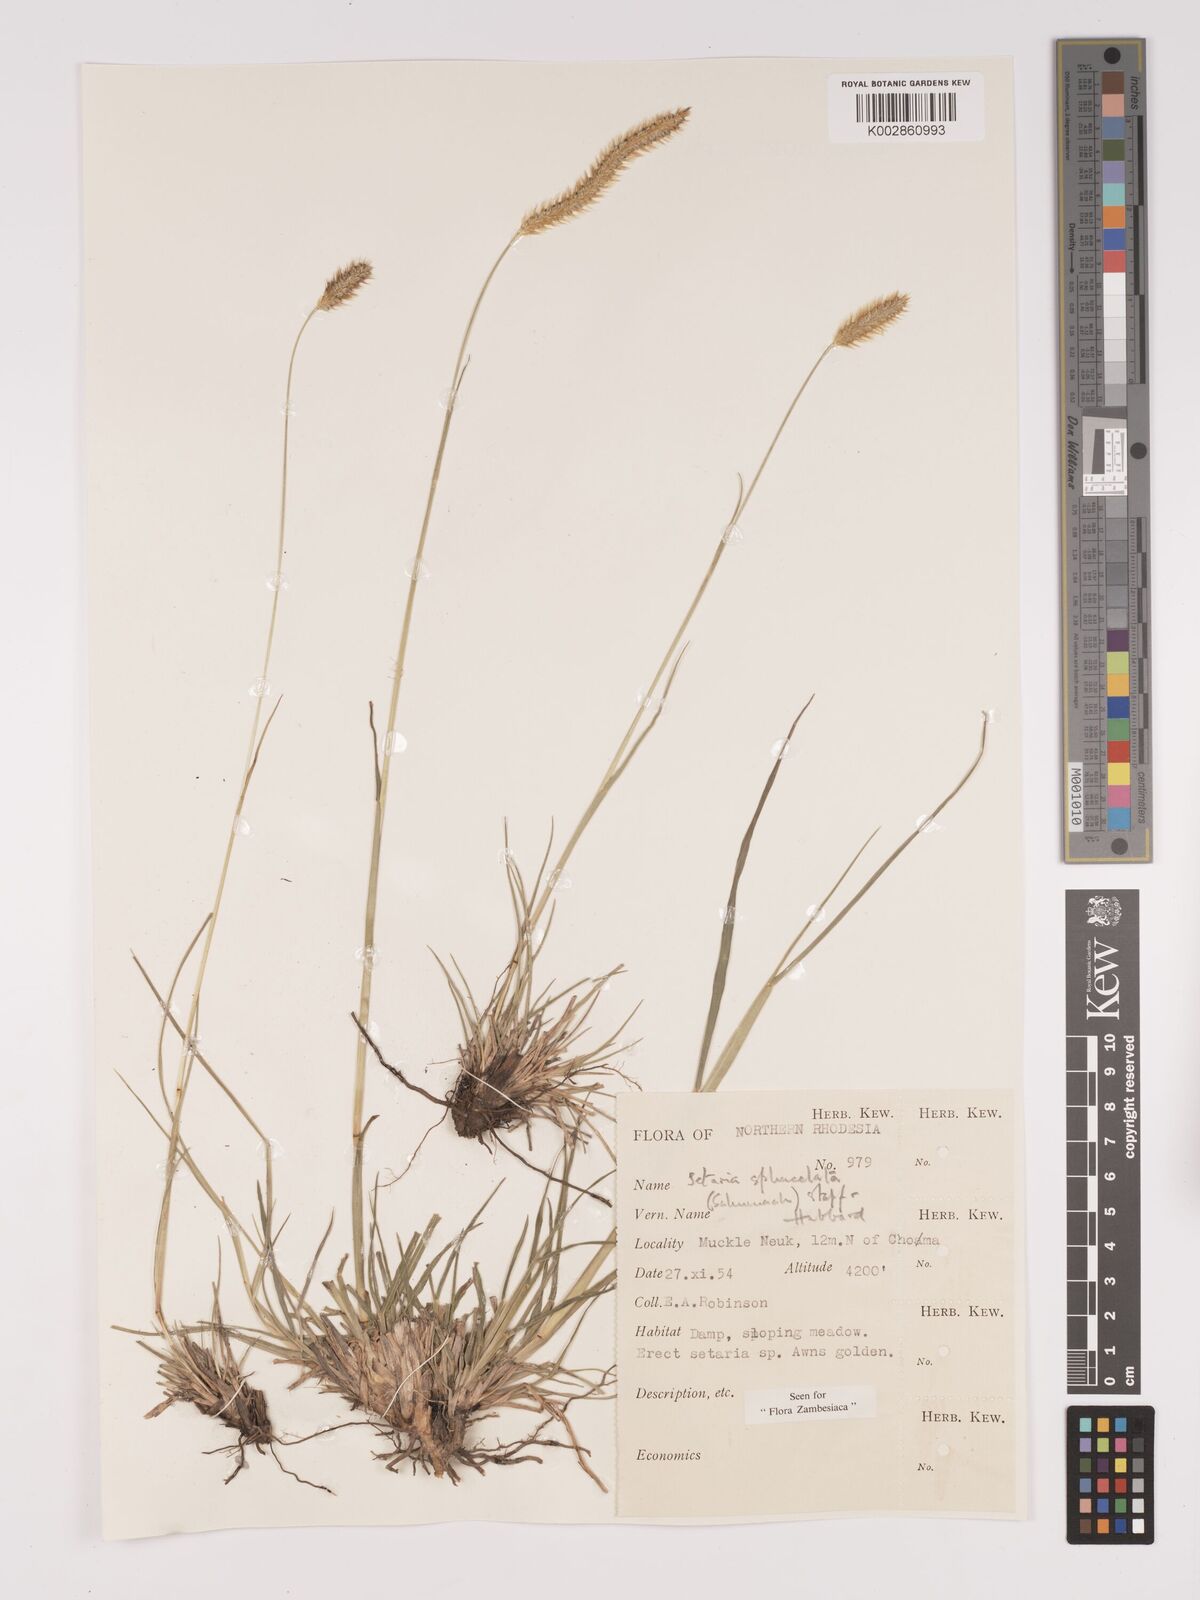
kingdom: Plantae
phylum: Tracheophyta
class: Liliopsida
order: Poales
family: Poaceae
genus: Setaria
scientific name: Setaria
